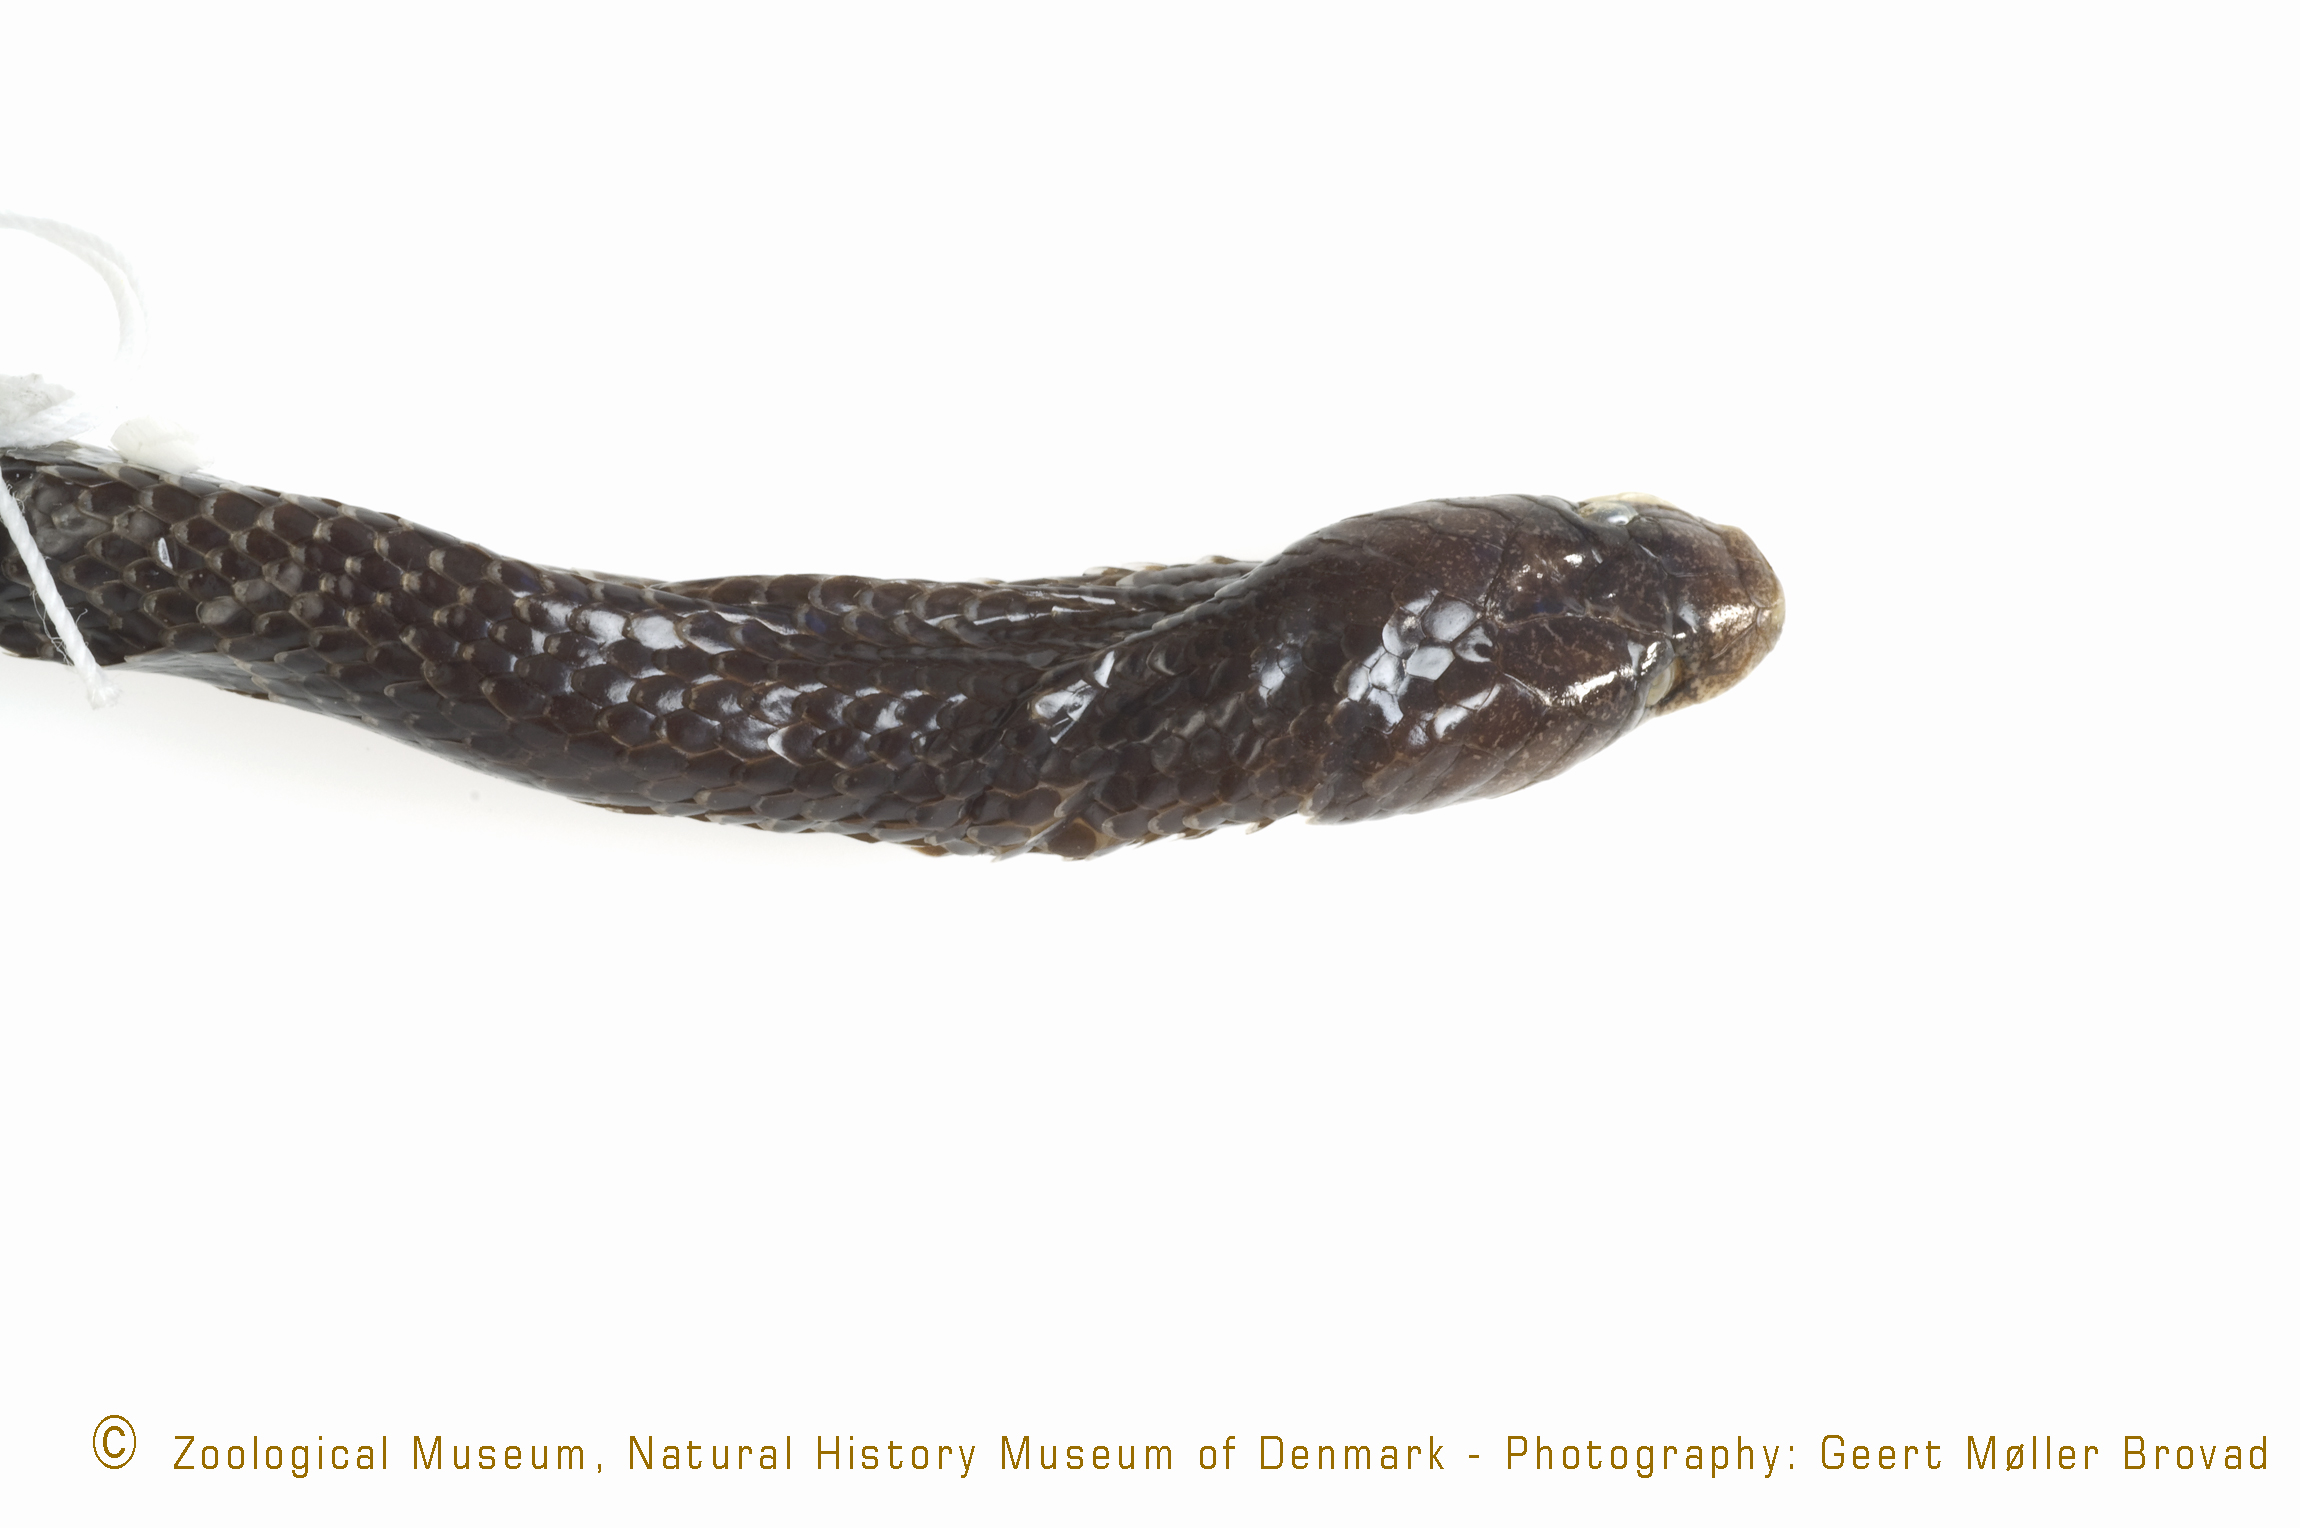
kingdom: Animalia
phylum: Chordata
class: Squamata
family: Lamprophiidae
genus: Lycophidion
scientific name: Lycophidion capense
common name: Cape wolf snake
